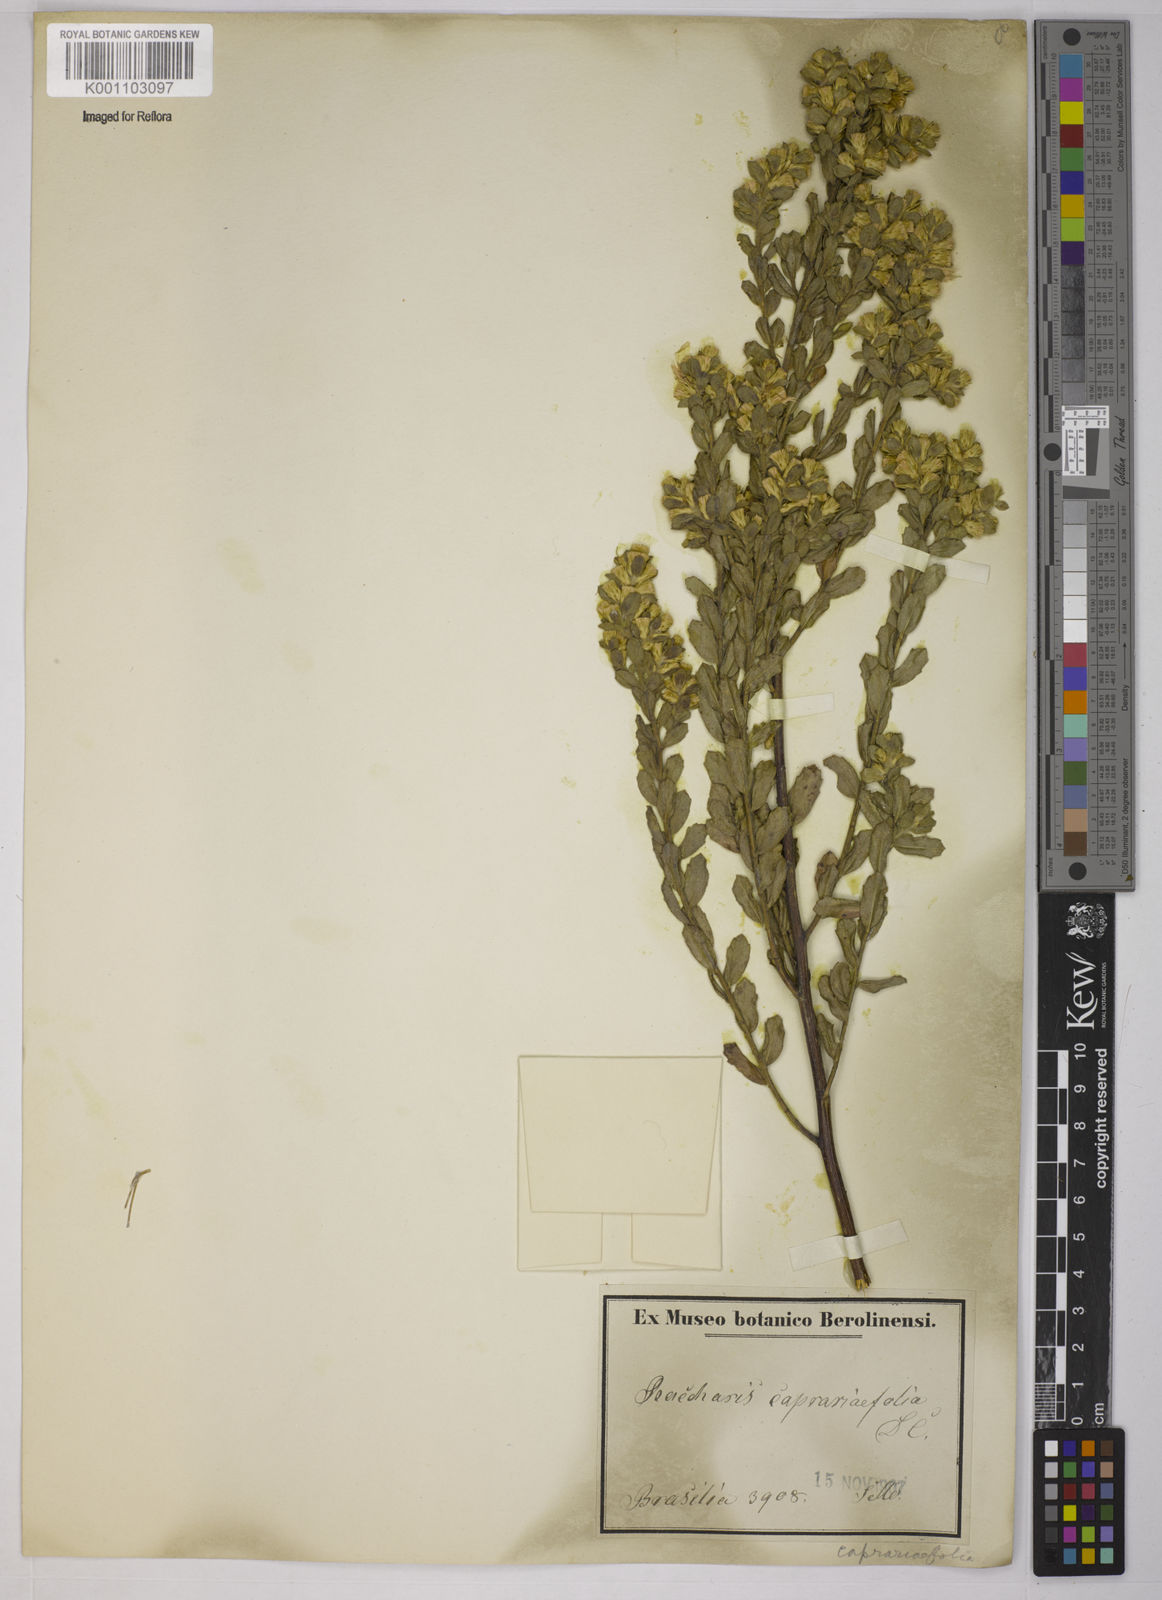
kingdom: Plantae
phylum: Tracheophyta
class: Magnoliopsida
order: Asterales
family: Asteraceae
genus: Baccharis
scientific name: Baccharis caprariifolia
